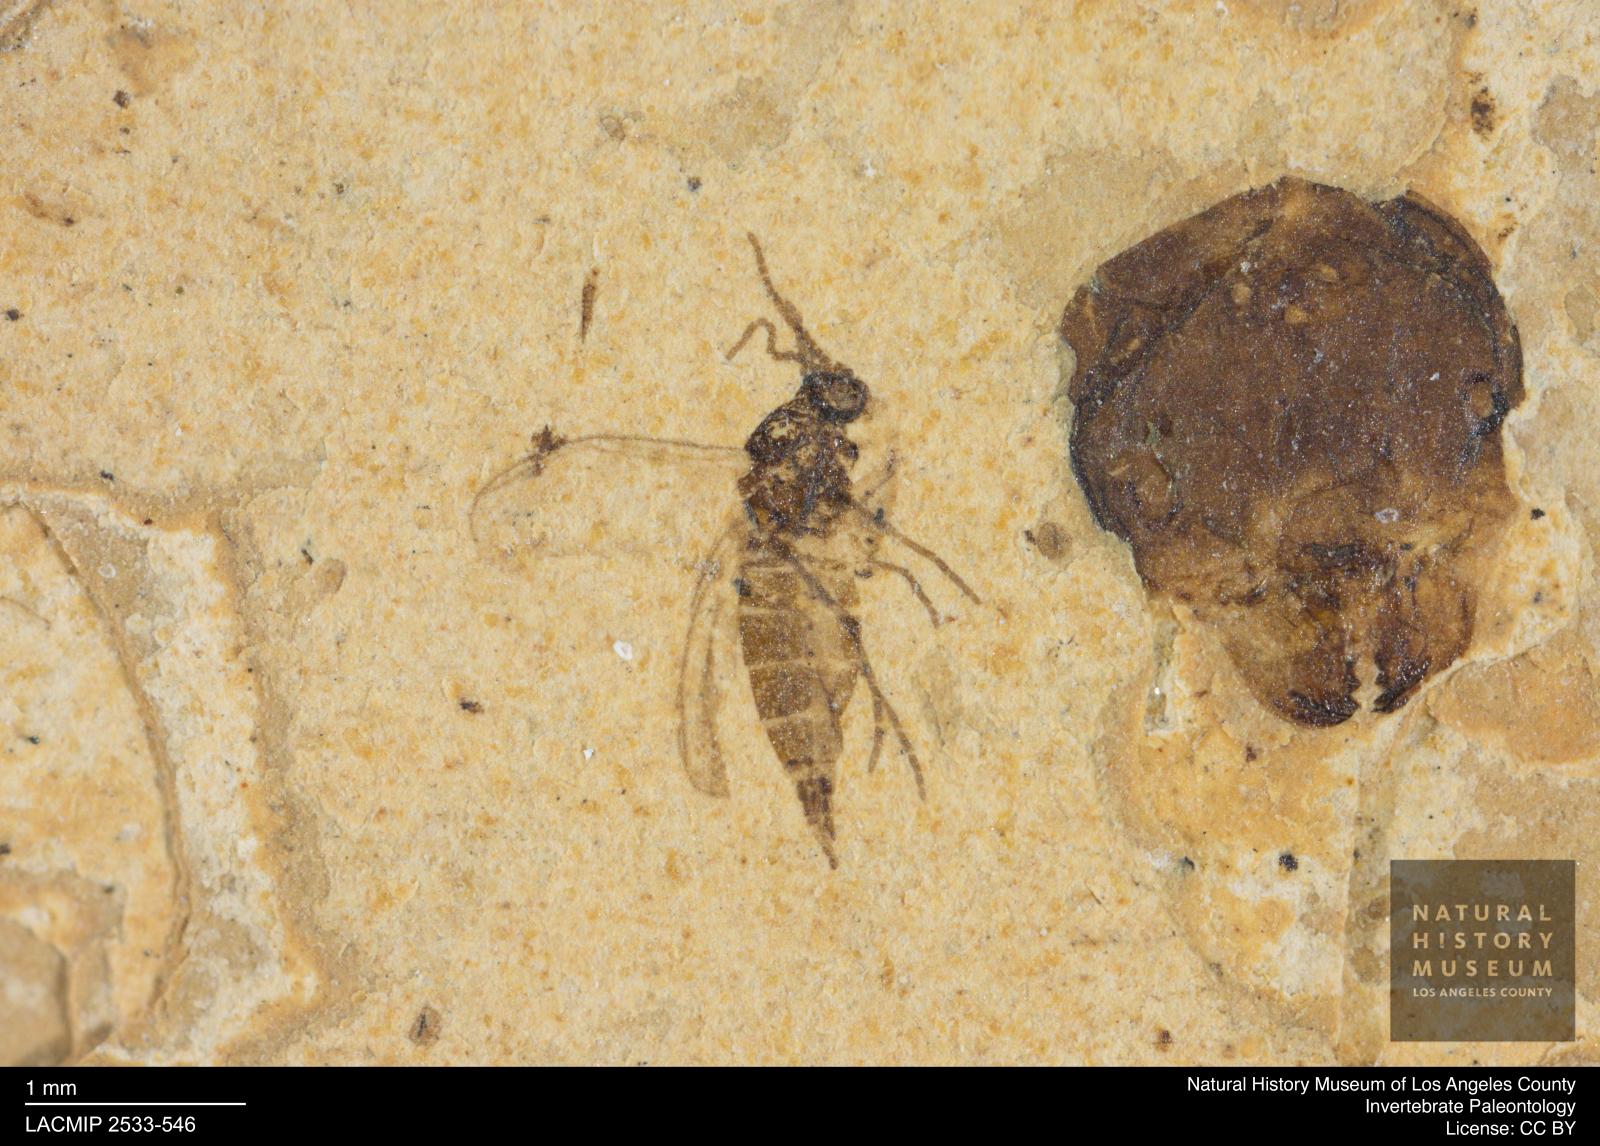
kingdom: Animalia
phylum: Arthropoda
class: Insecta
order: Diptera
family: Sciaridae
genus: Sciara
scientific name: Sciara amicula
